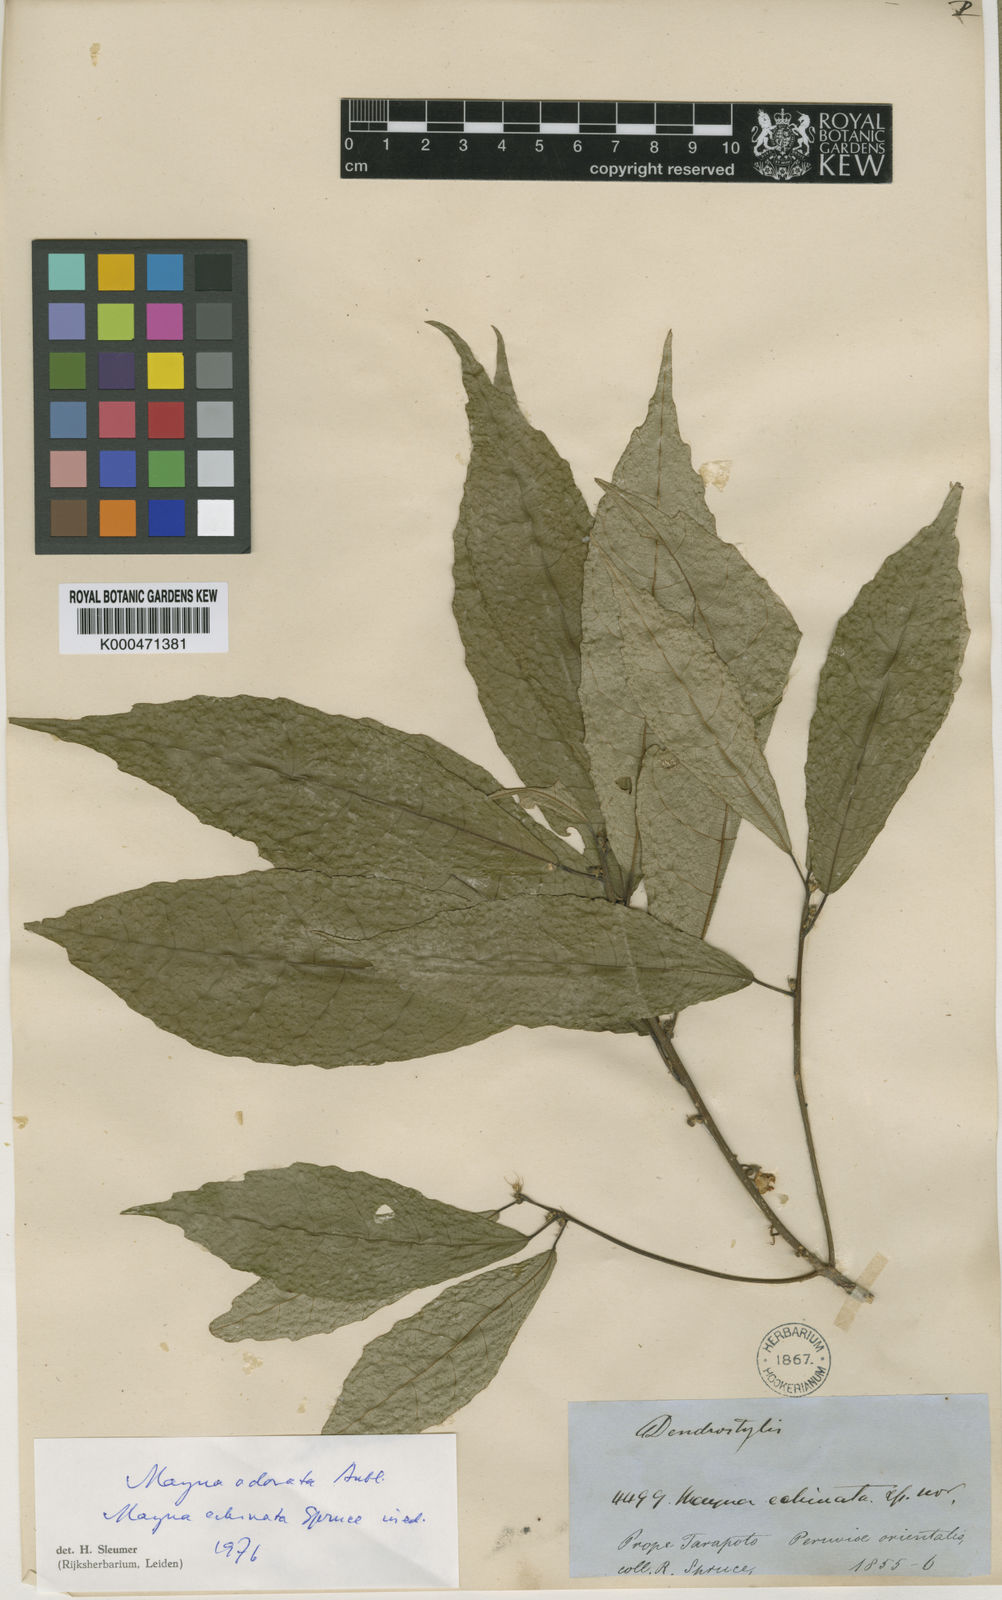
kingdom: Plantae
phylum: Tracheophyta
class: Magnoliopsida
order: Malpighiales
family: Achariaceae
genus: Mayna
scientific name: Mayna odorata
